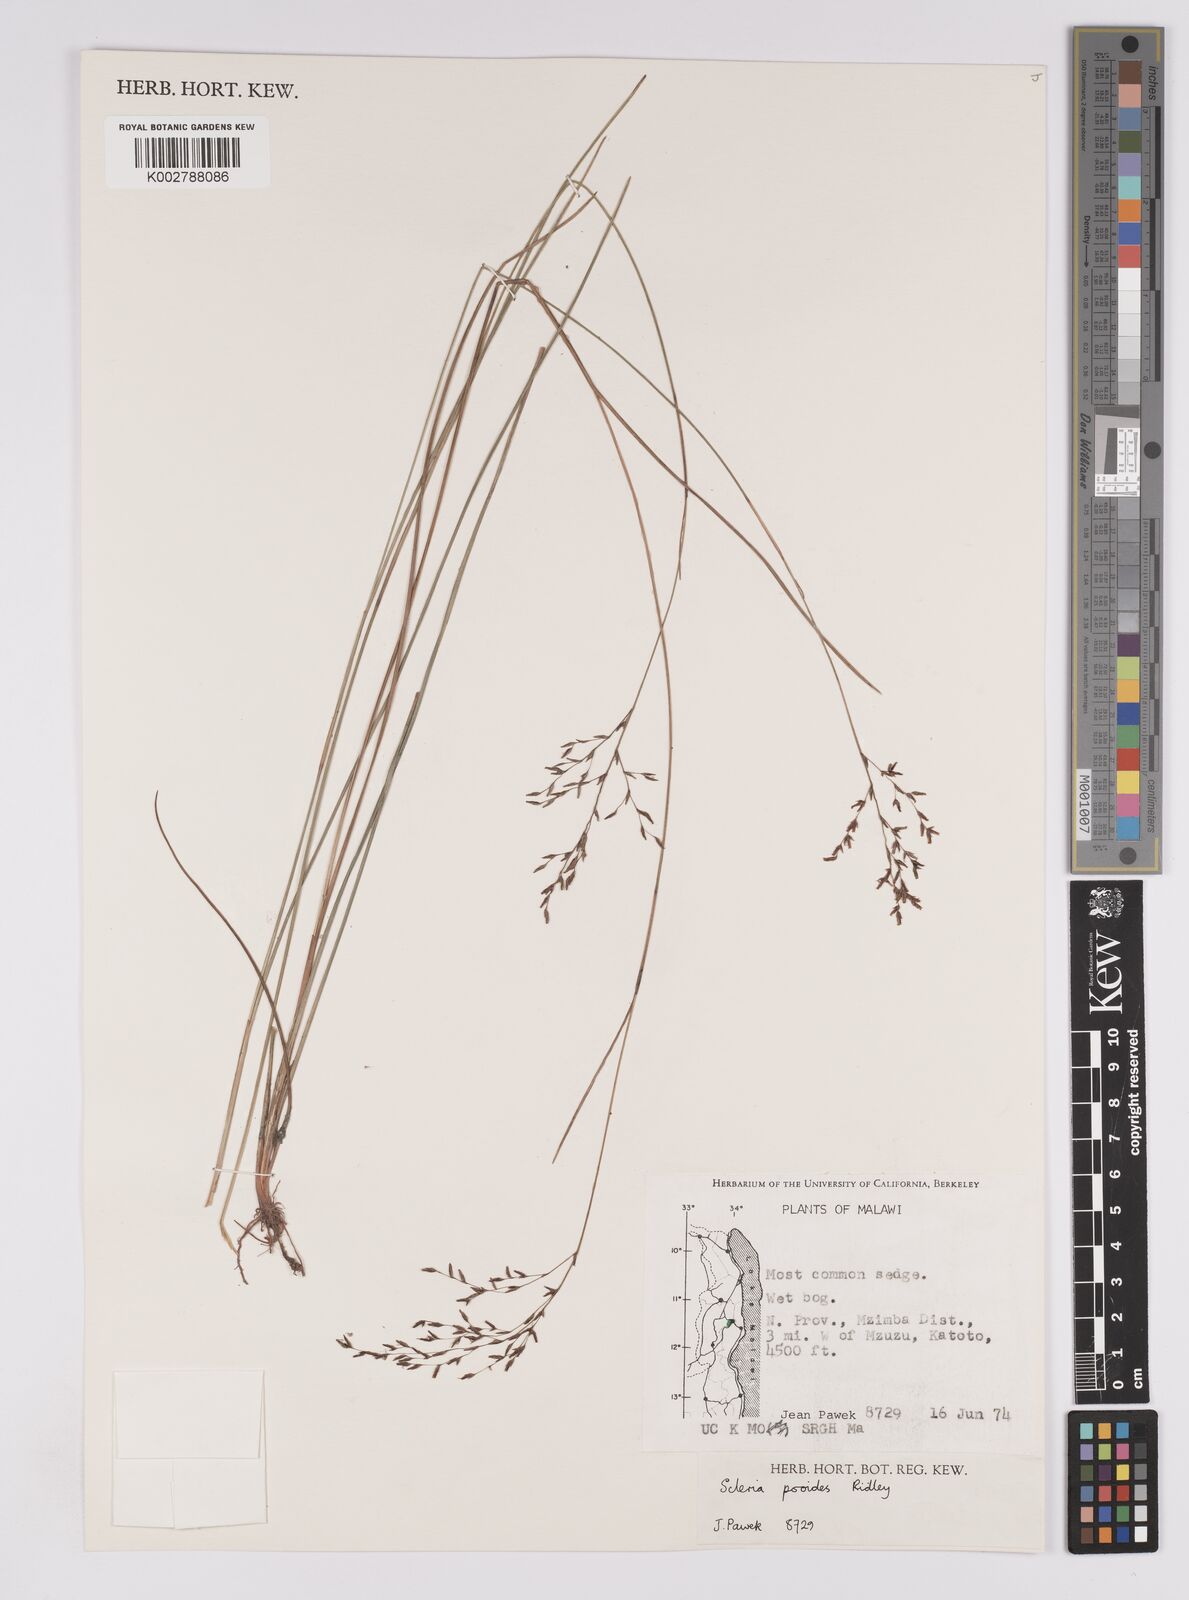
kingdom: Plantae
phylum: Tracheophyta
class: Liliopsida
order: Poales
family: Cyperaceae
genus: Scleria
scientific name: Scleria pooides
